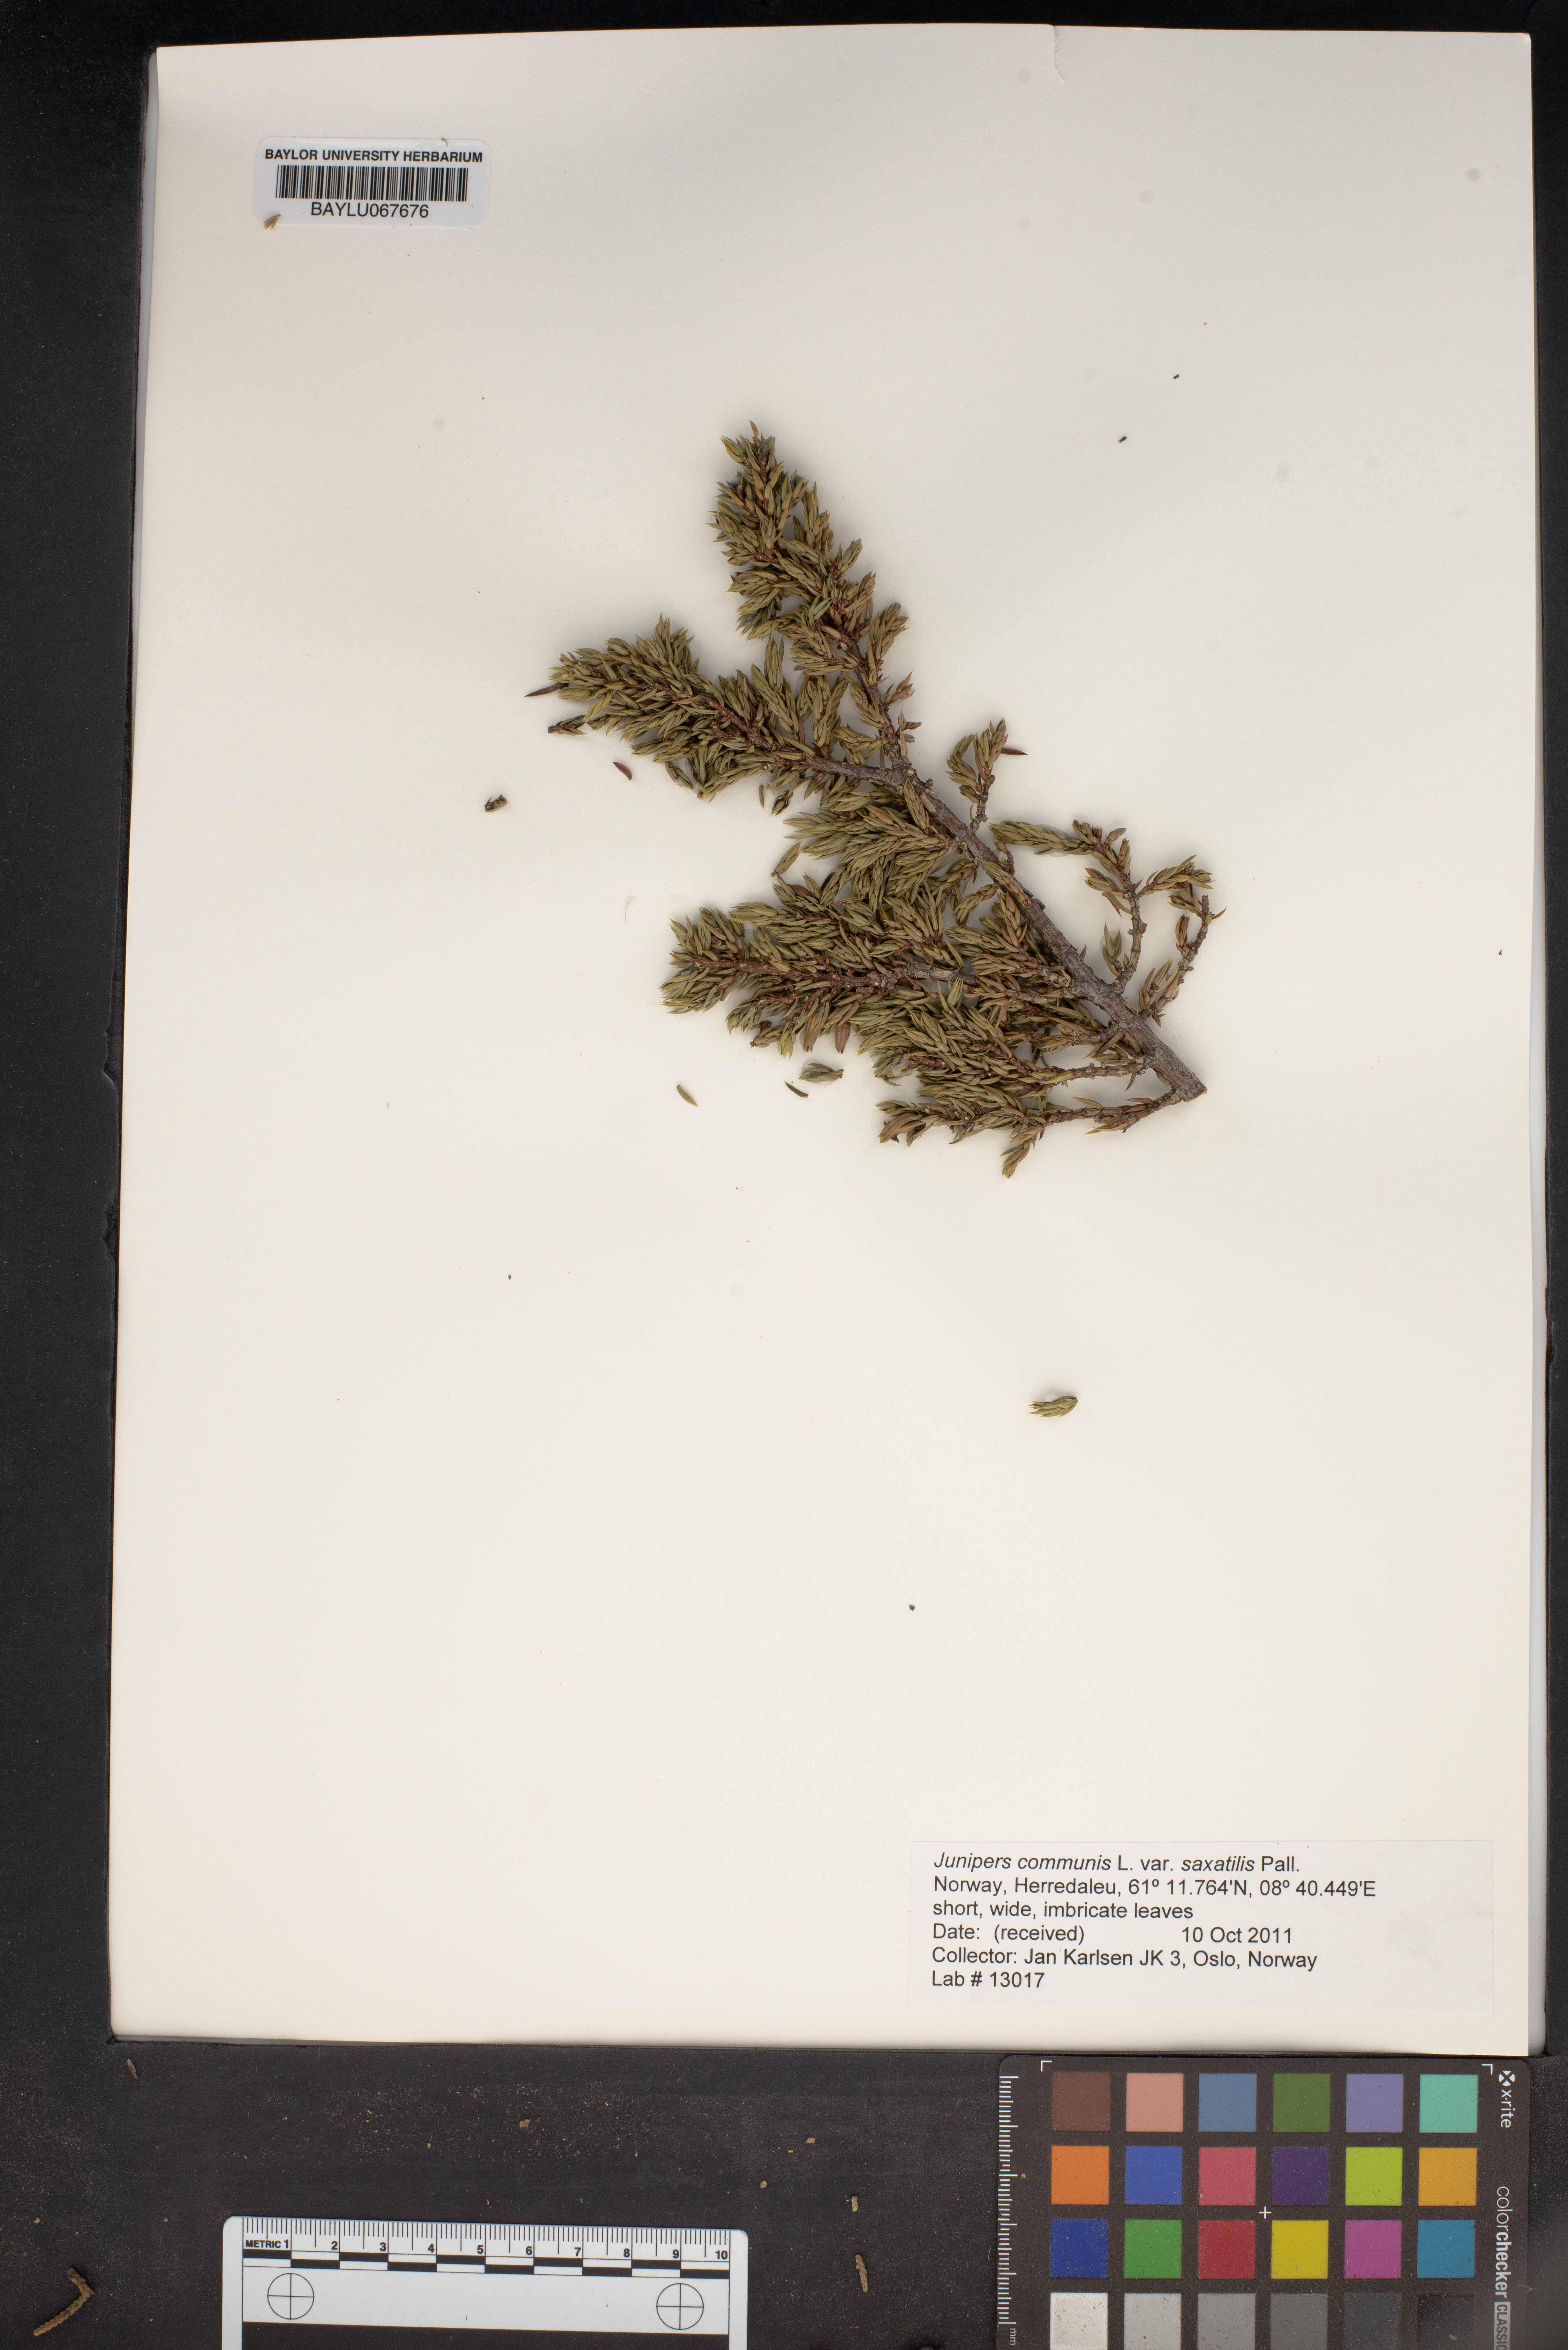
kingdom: Plantae
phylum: Tracheophyta
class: Pinopsida
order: Pinales
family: Cupressaceae
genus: Juniperus
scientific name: Juniperus communis
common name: Common juniper
